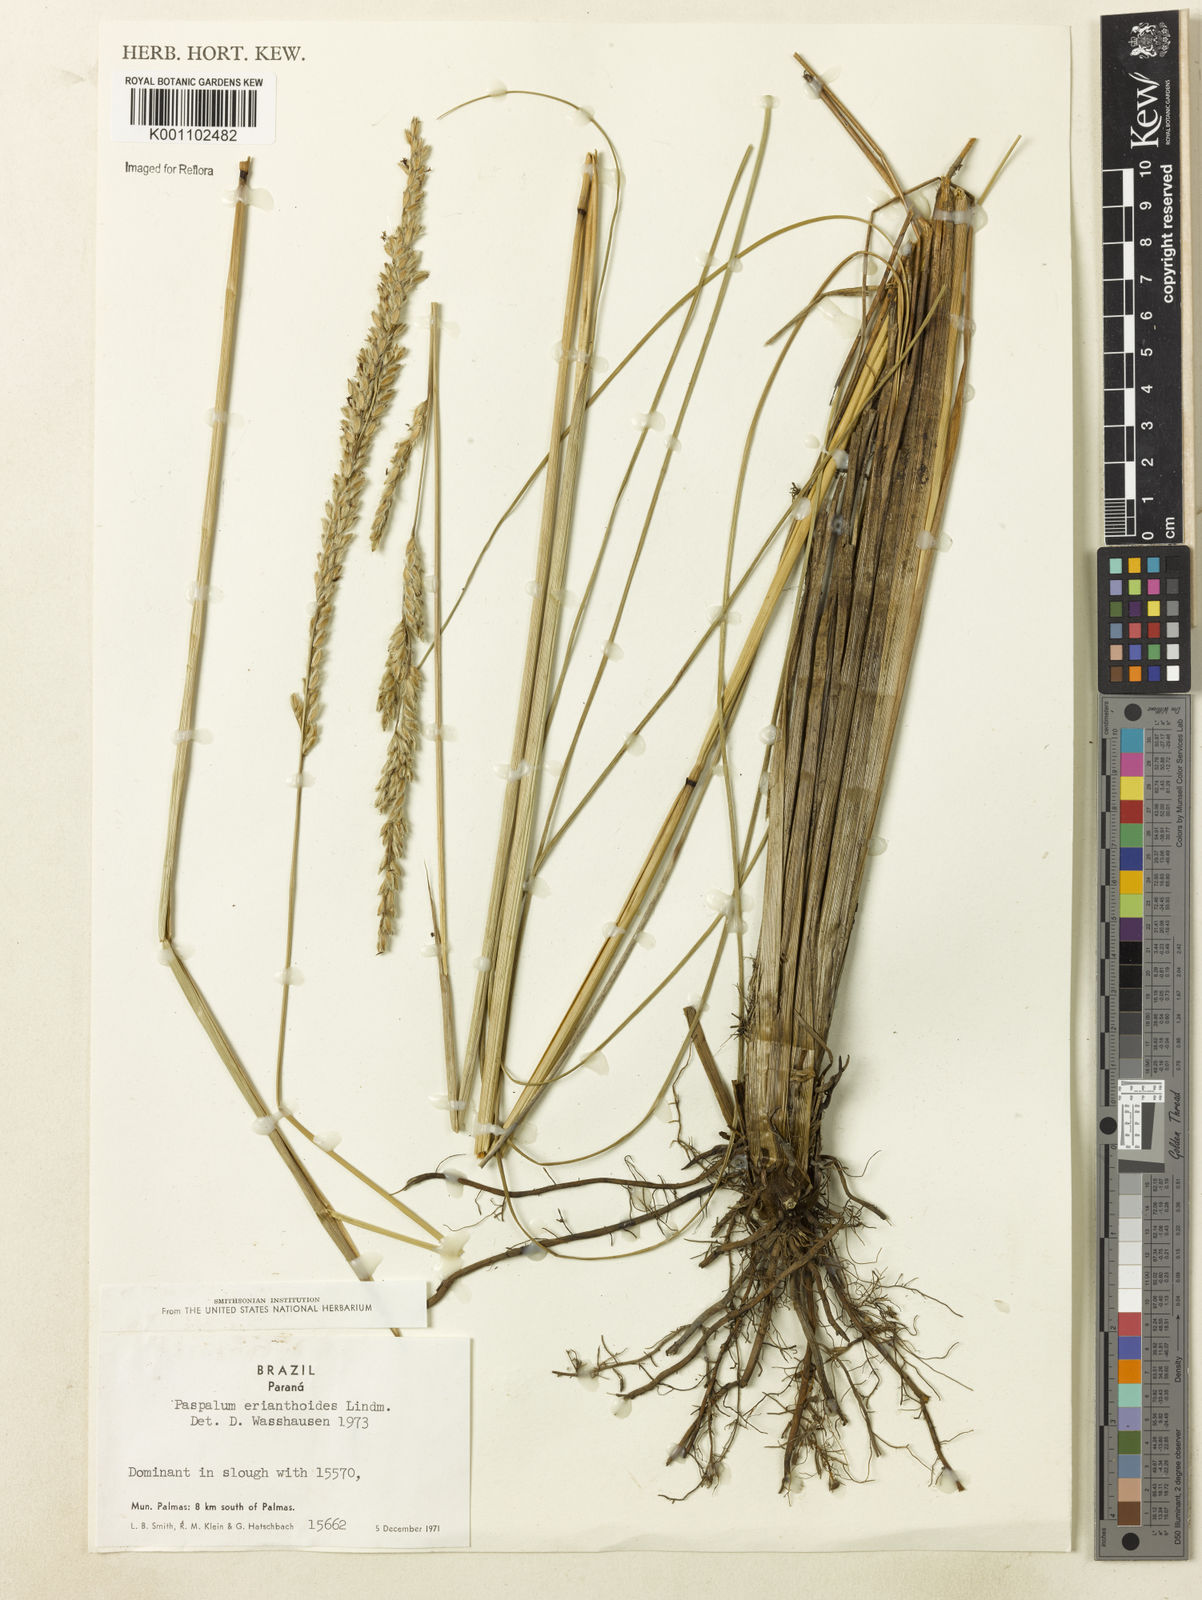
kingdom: Plantae
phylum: Tracheophyta
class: Liliopsida
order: Poales
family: Poaceae
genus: Paspalum
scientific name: Paspalum erianthoides
